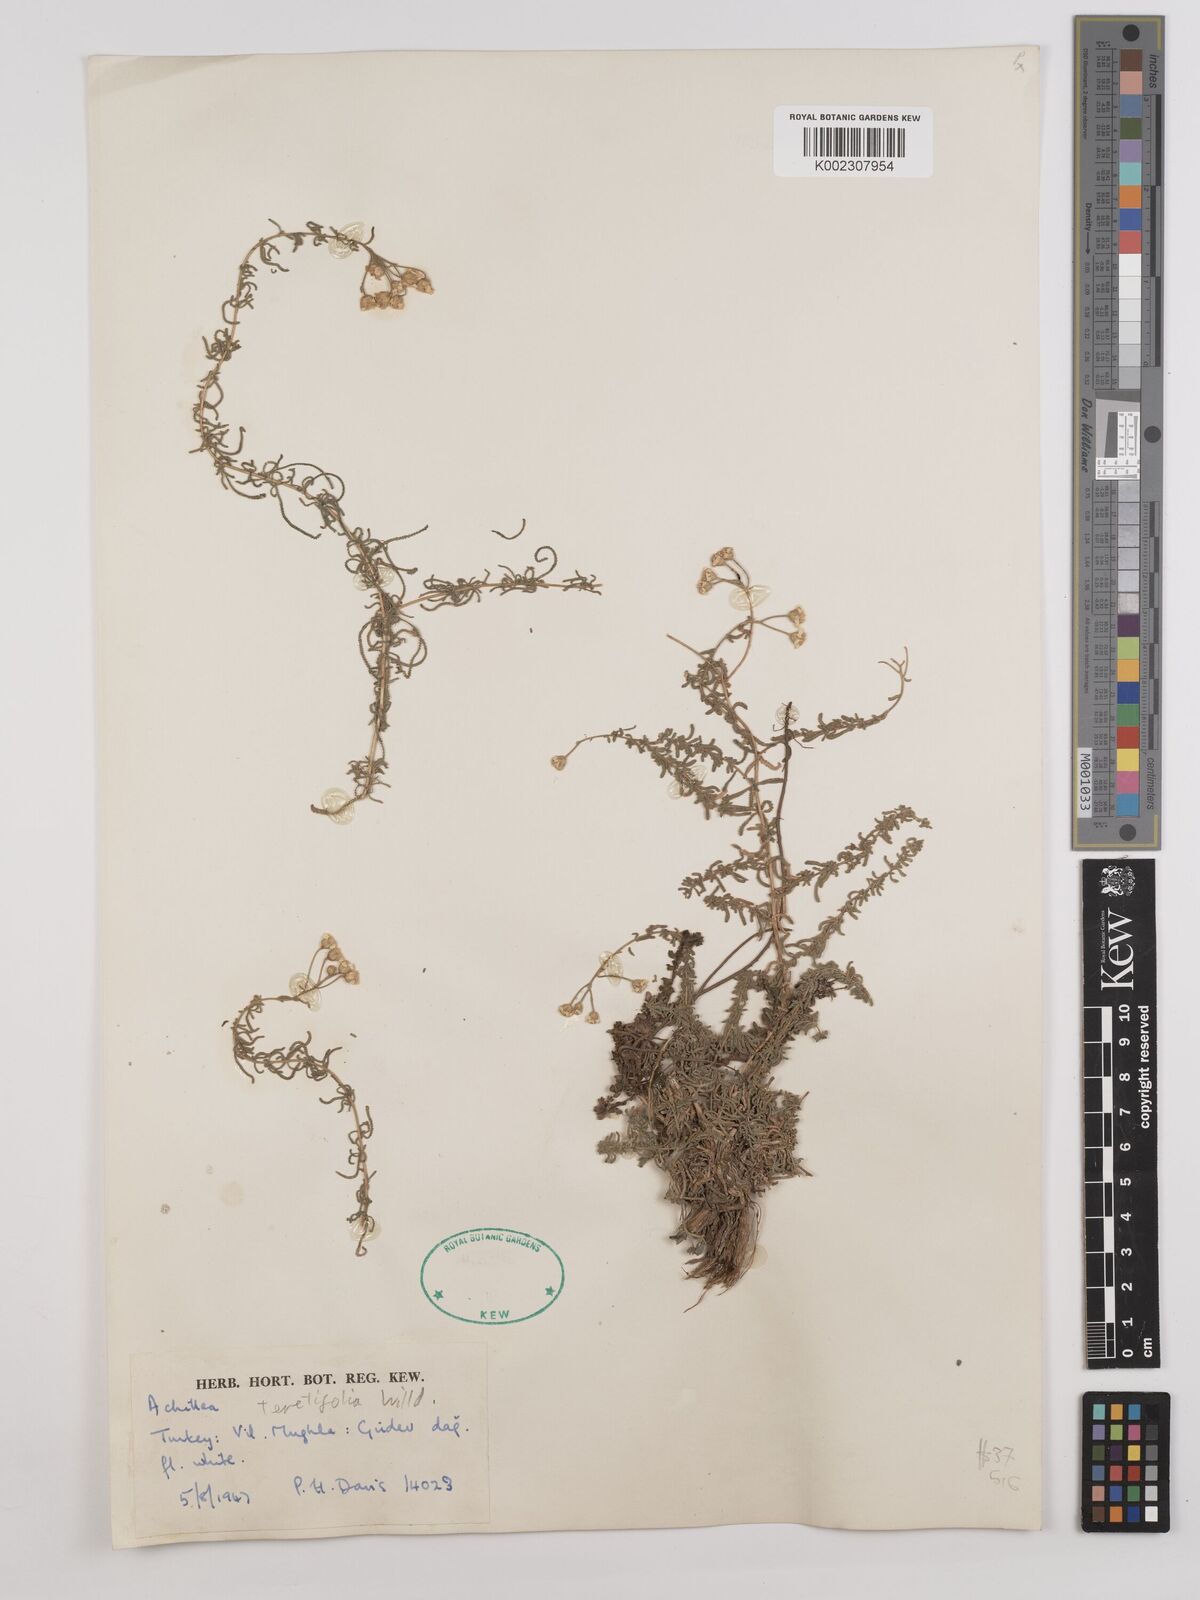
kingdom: Plantae
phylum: Tracheophyta
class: Magnoliopsida
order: Asterales
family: Asteraceae
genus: Achillea
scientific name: Achillea wilhelmsii
